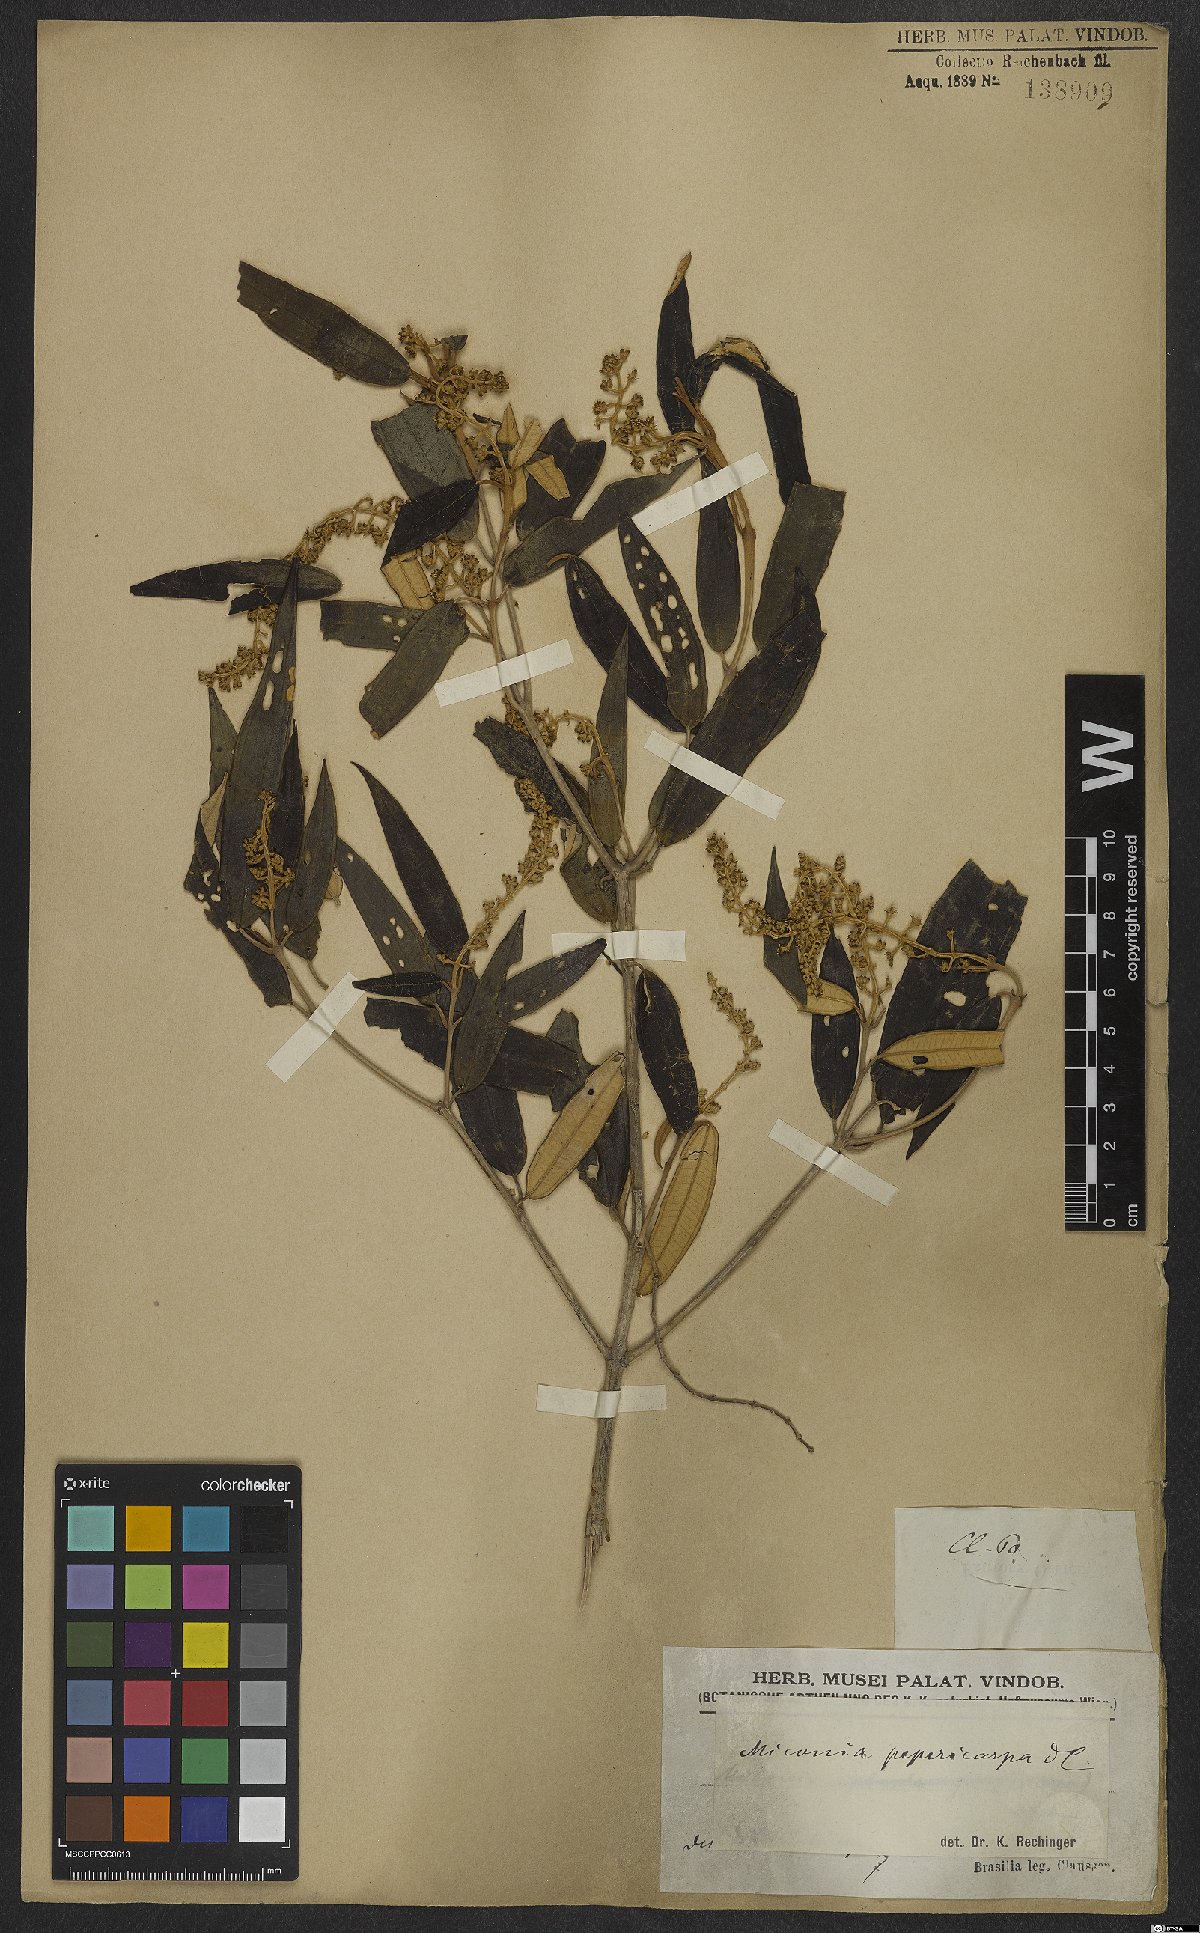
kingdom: Plantae
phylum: Tracheophyta
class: Magnoliopsida
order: Myrtales
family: Melastomataceae
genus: Miconia
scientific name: Miconia pepericarpa
